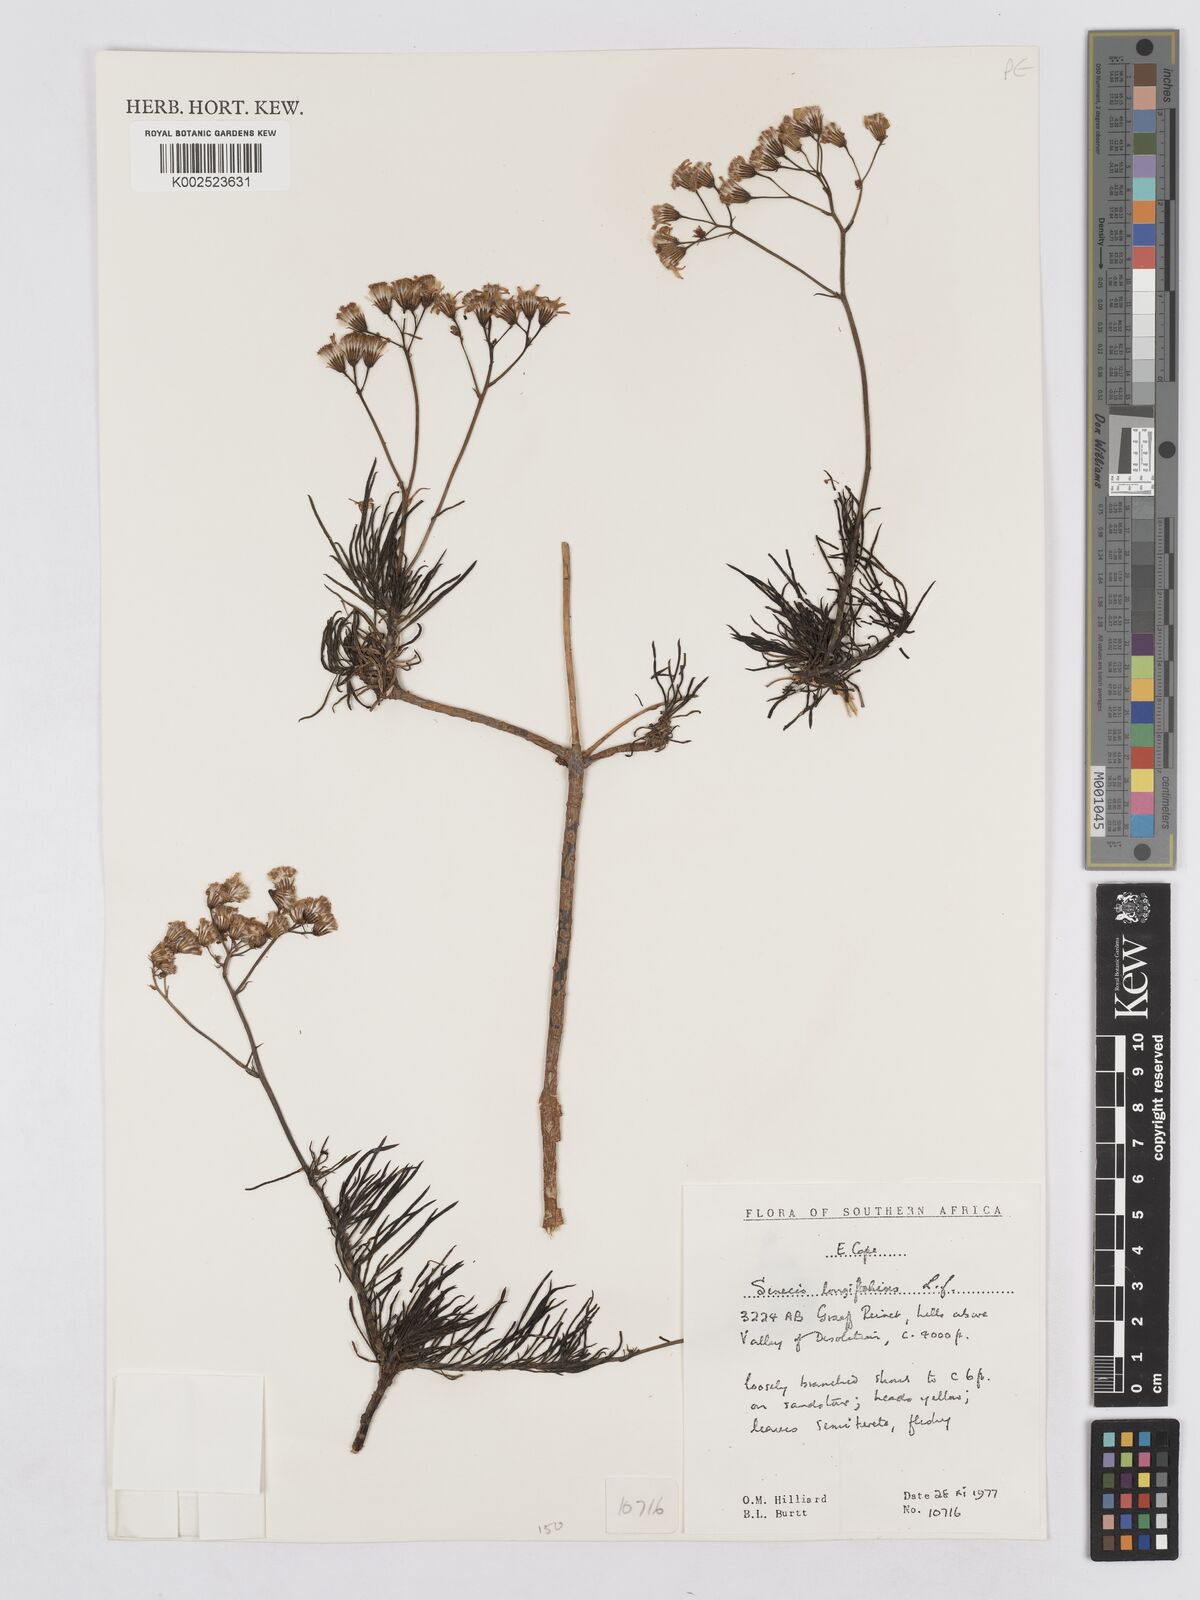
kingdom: Plantae
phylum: Tracheophyta
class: Magnoliopsida
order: Asterales
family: Asteraceae
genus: Senecio
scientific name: Senecio linifolius
